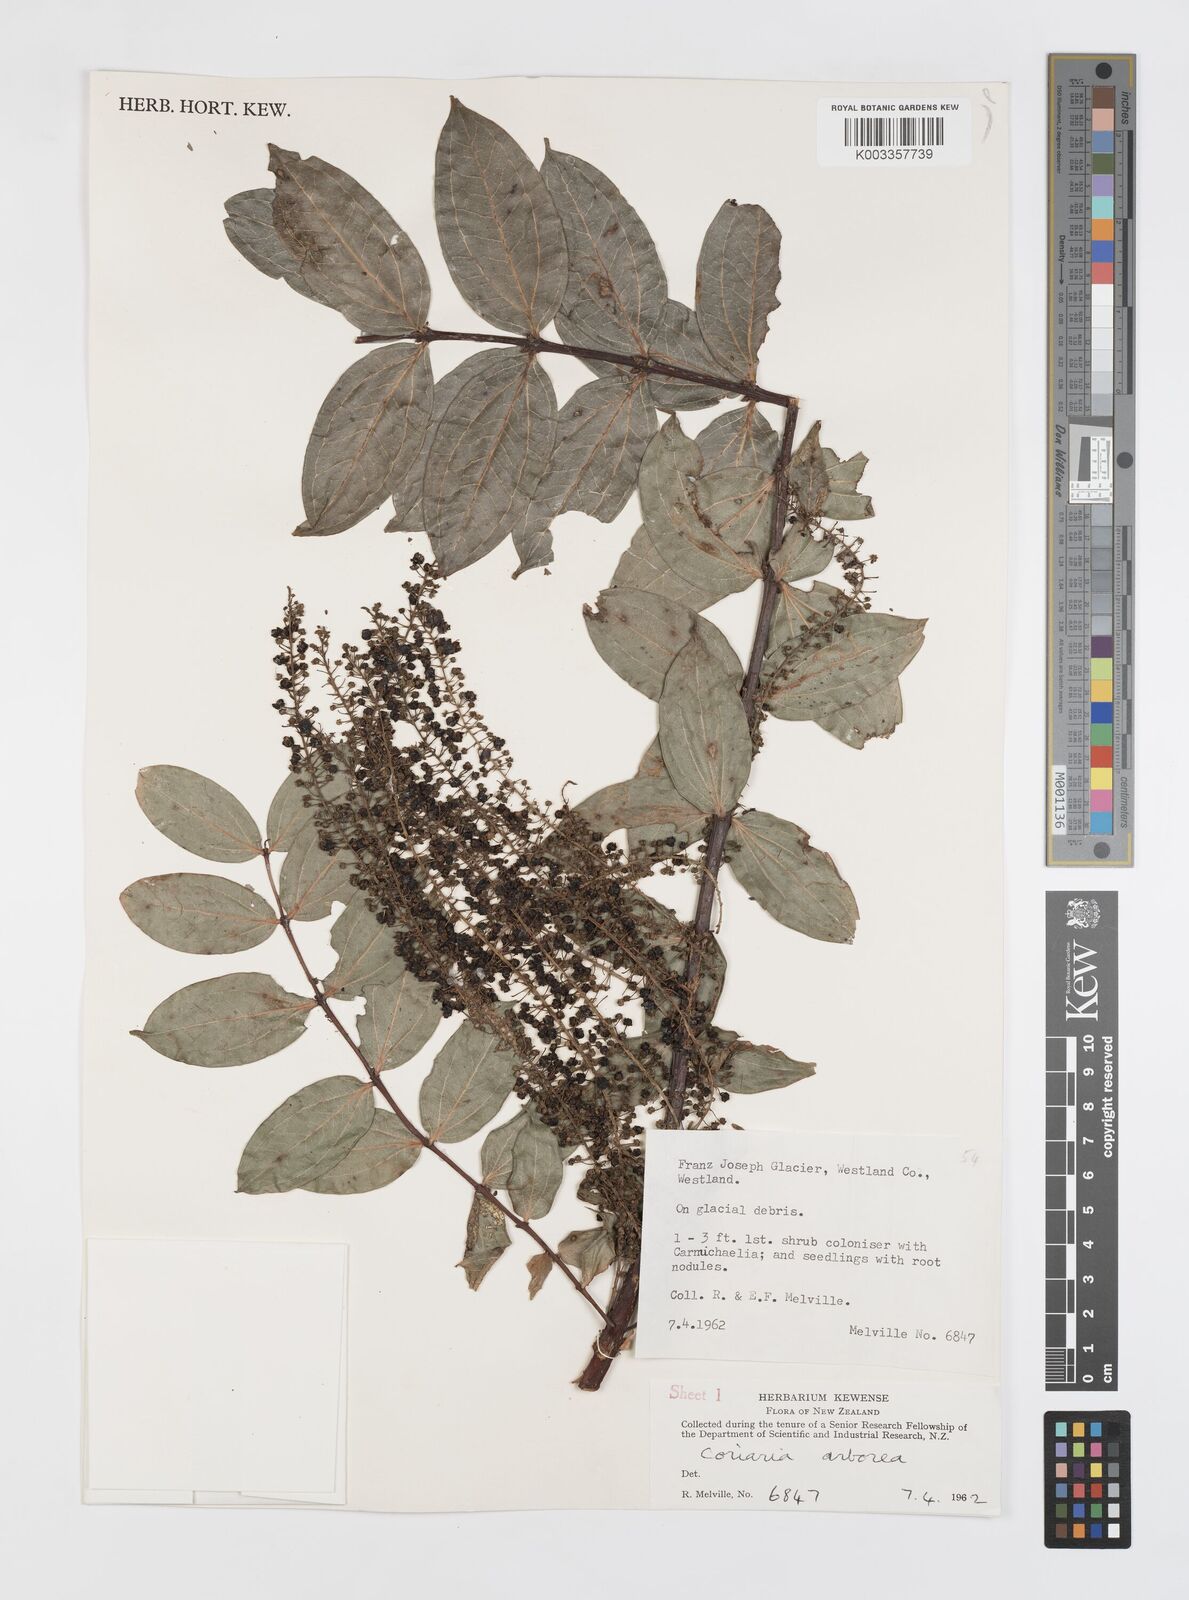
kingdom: Plantae
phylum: Tracheophyta
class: Magnoliopsida
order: Cucurbitales
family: Coriariaceae
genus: Coriaria
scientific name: Coriaria arborea
